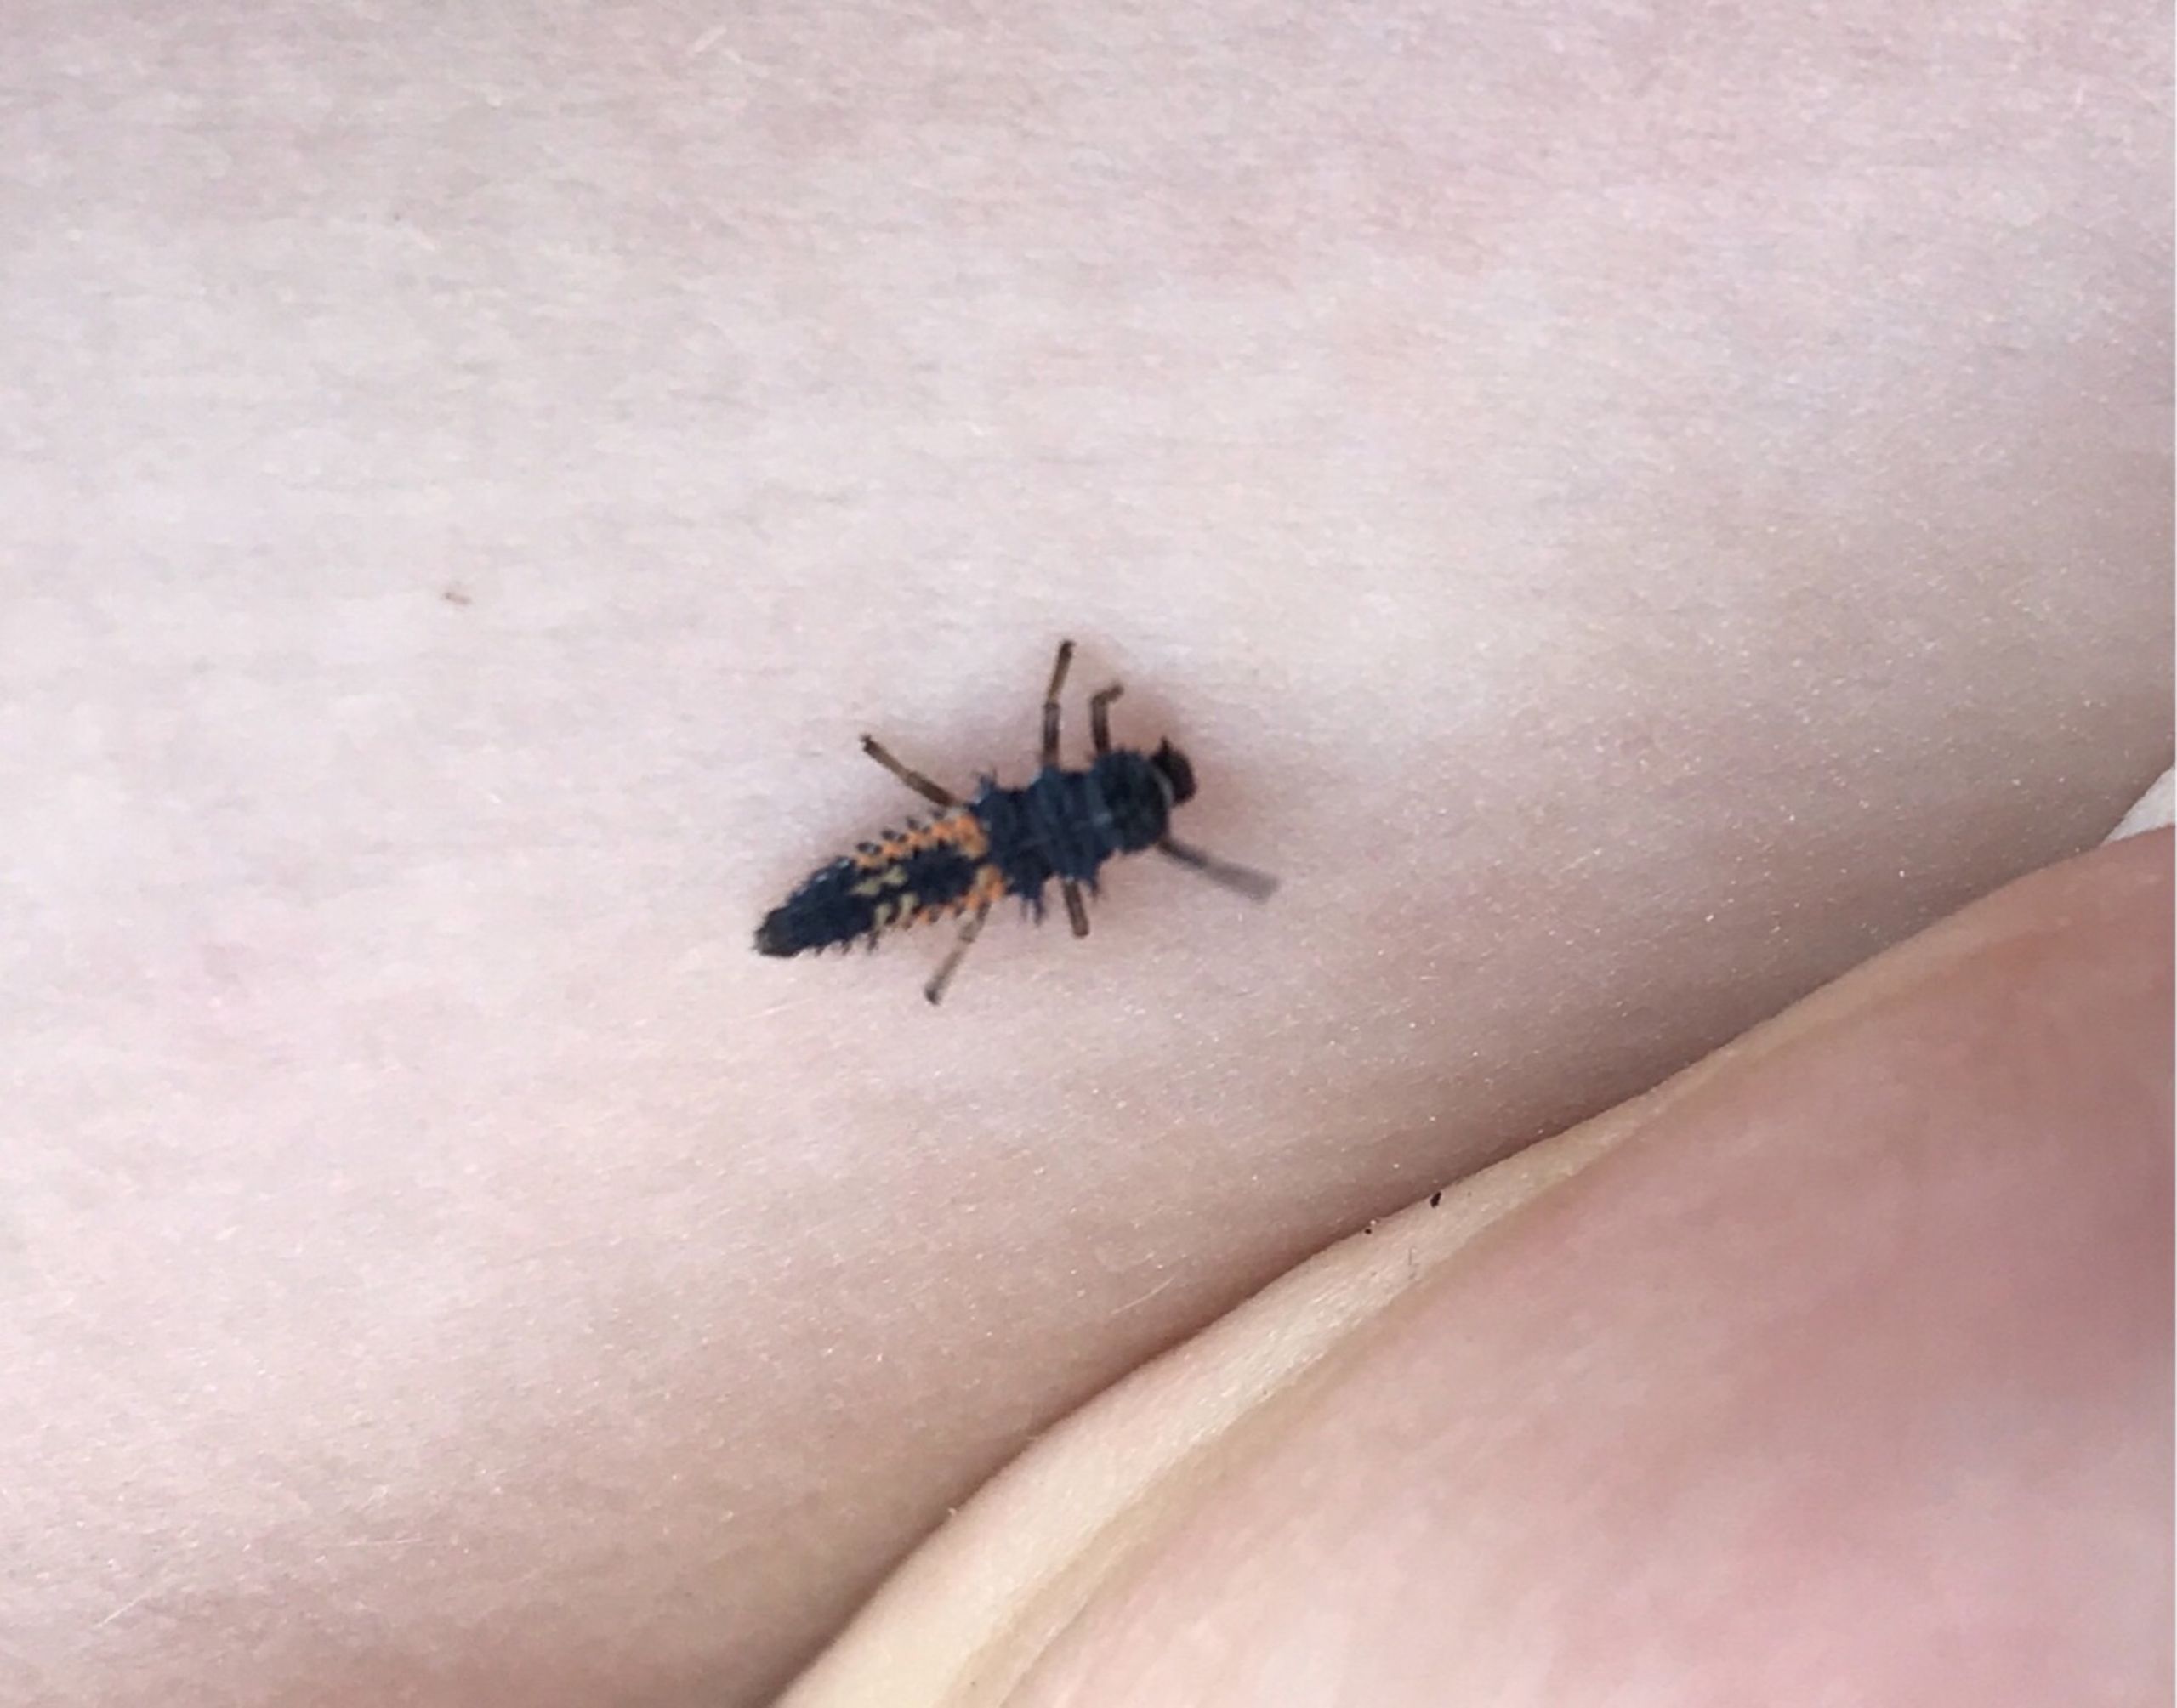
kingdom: Animalia
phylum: Arthropoda
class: Insecta
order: Coleoptera
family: Coccinellidae
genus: Harmonia
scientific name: Harmonia axyridis
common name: Harlekinmariehøne
